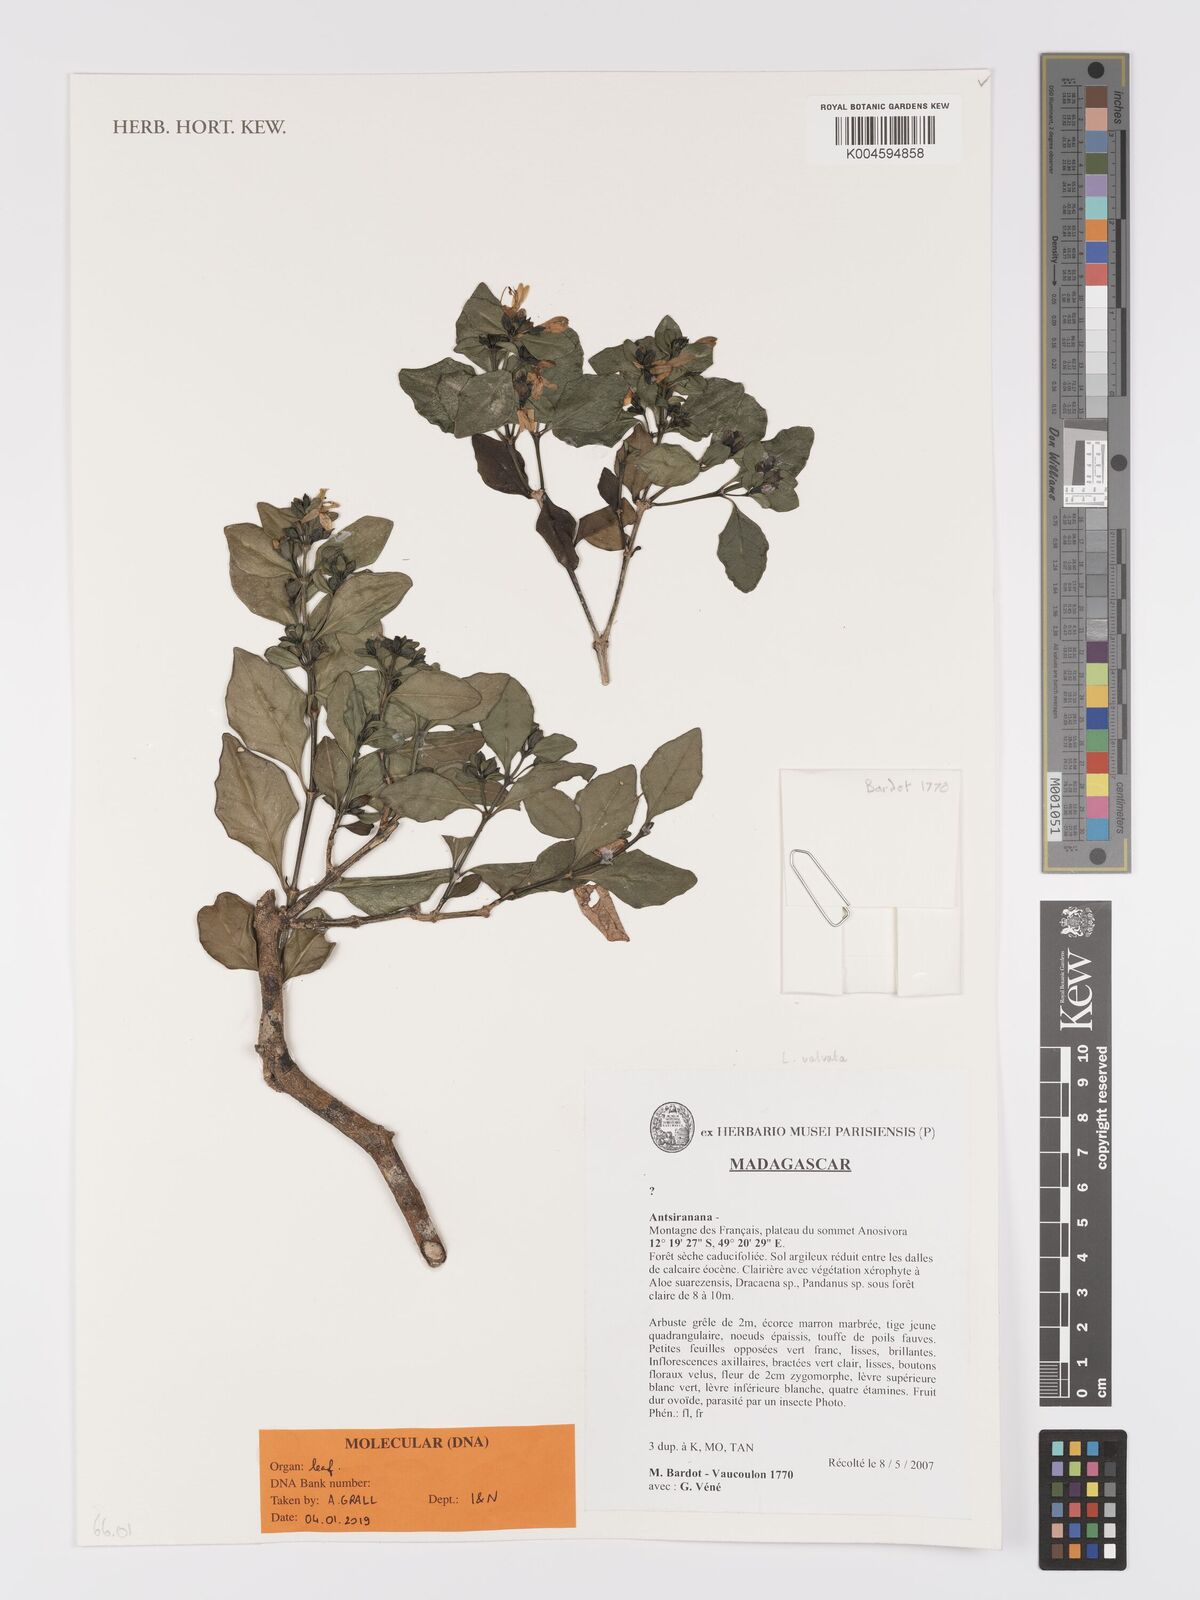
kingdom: Plantae
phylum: Tracheophyta
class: Magnoliopsida
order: Lamiales
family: Acanthaceae
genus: Leandriella
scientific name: Leandriella
